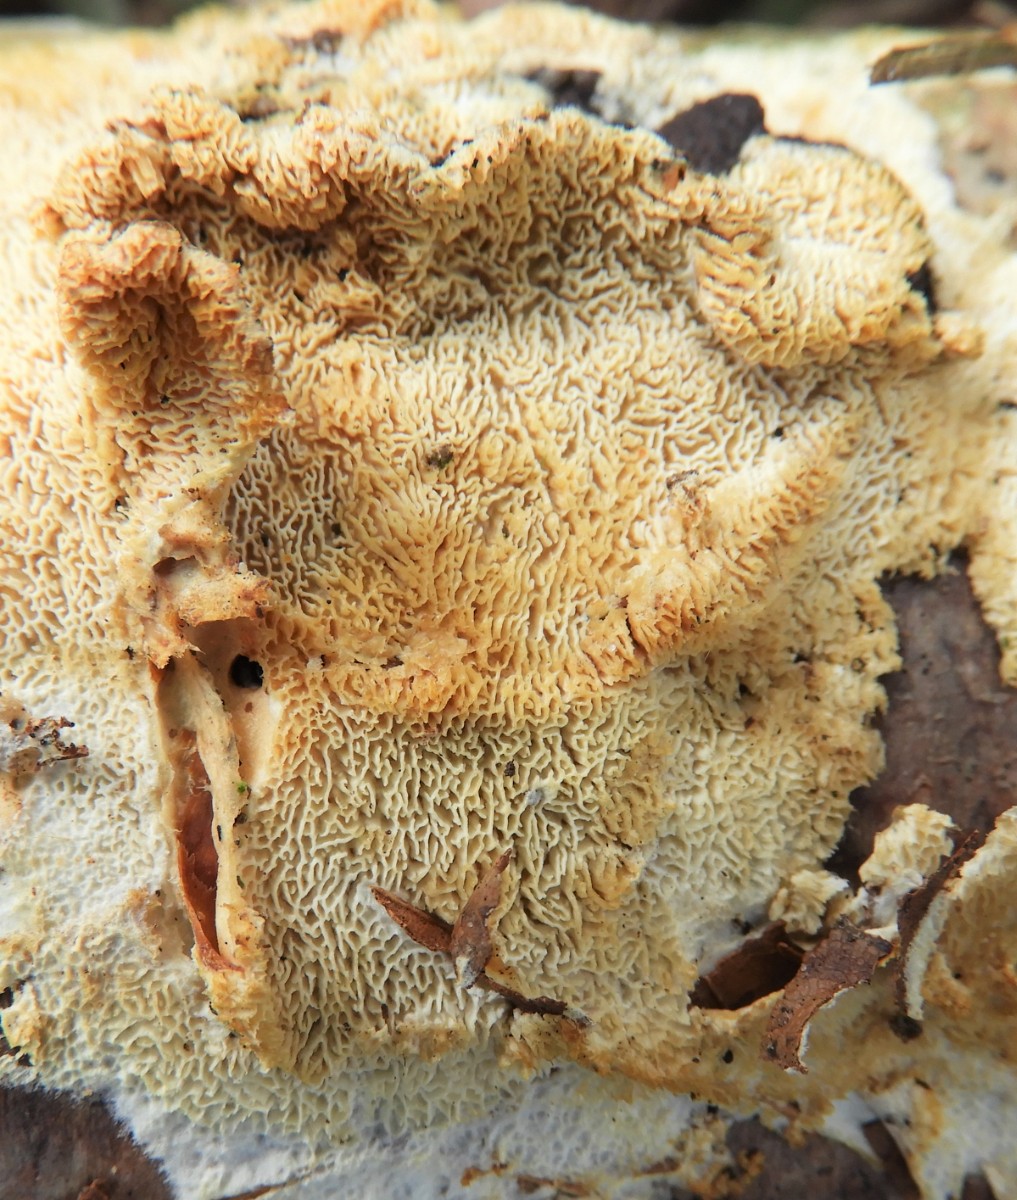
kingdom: Fungi
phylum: Basidiomycota
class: Agaricomycetes
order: Hymenochaetales
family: Schizoporaceae
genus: Xylodon
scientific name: Xylodon subtropicus
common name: labyrint-tandsvamp
